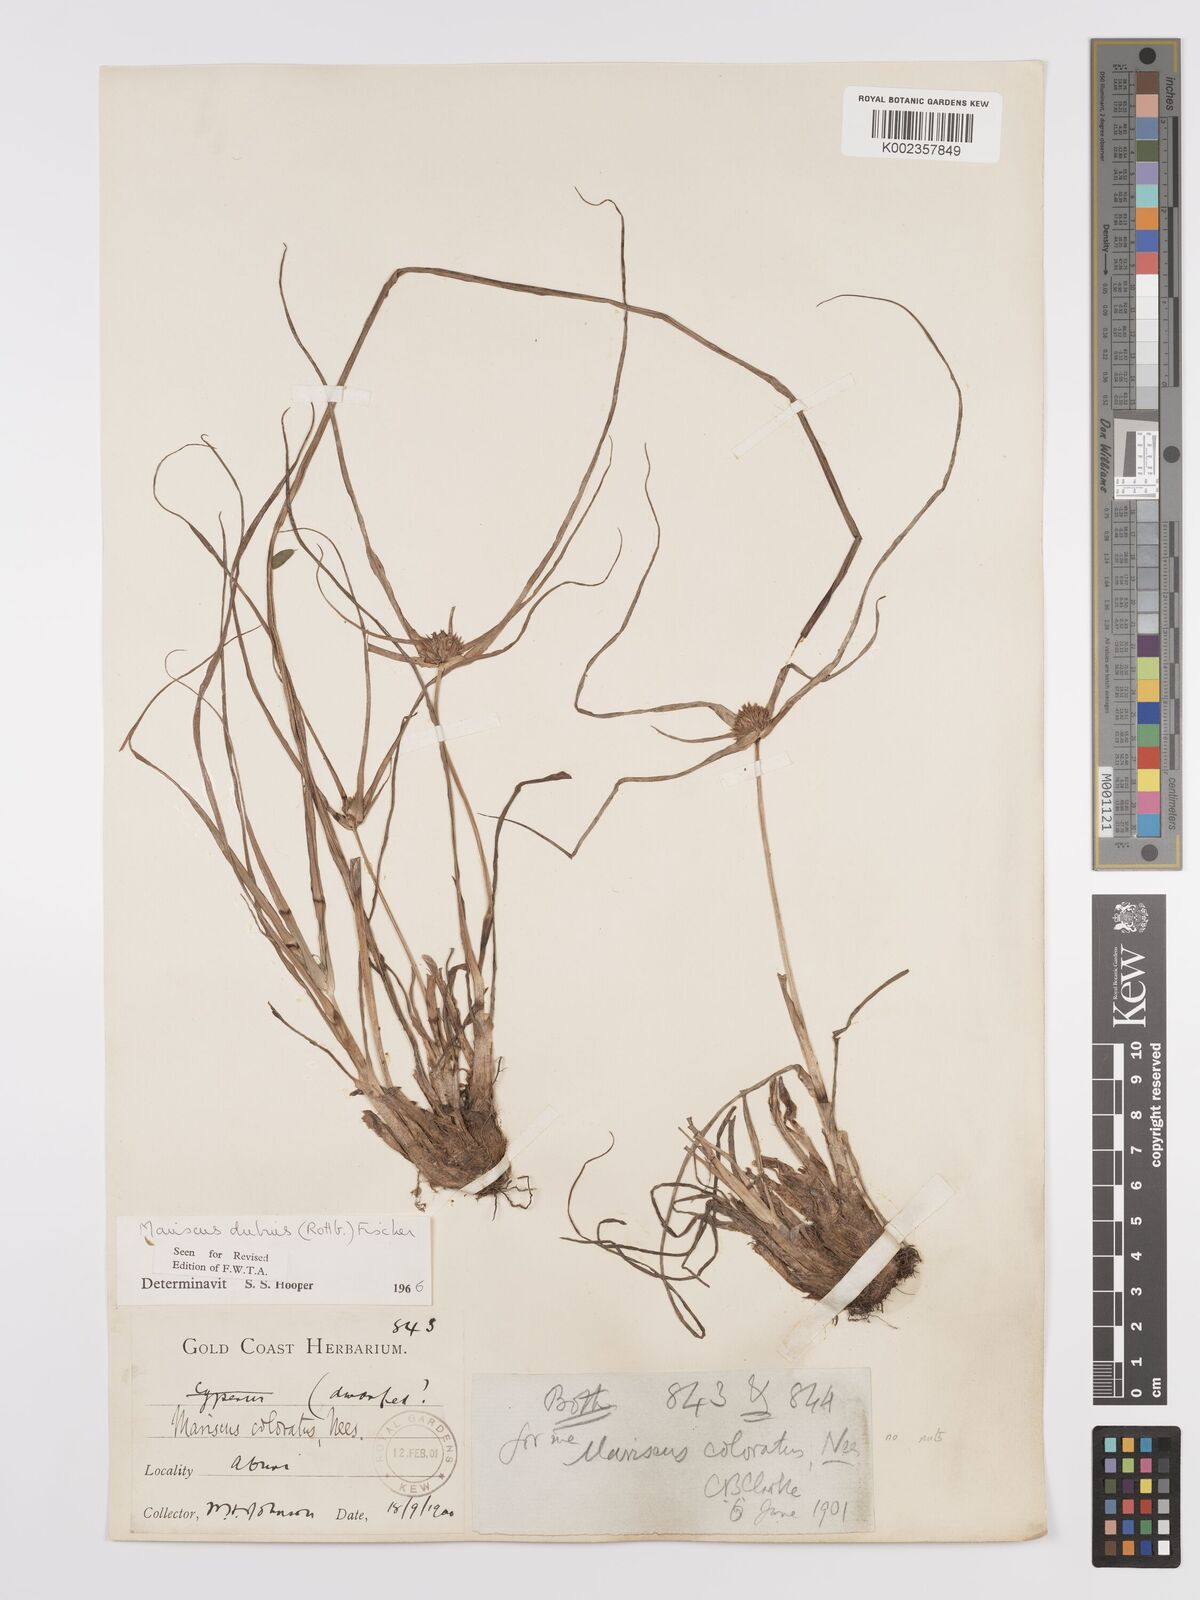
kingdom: Plantae
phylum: Tracheophyta
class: Liliopsida
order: Poales
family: Cyperaceae
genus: Cyperus
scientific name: Cyperus dubius
